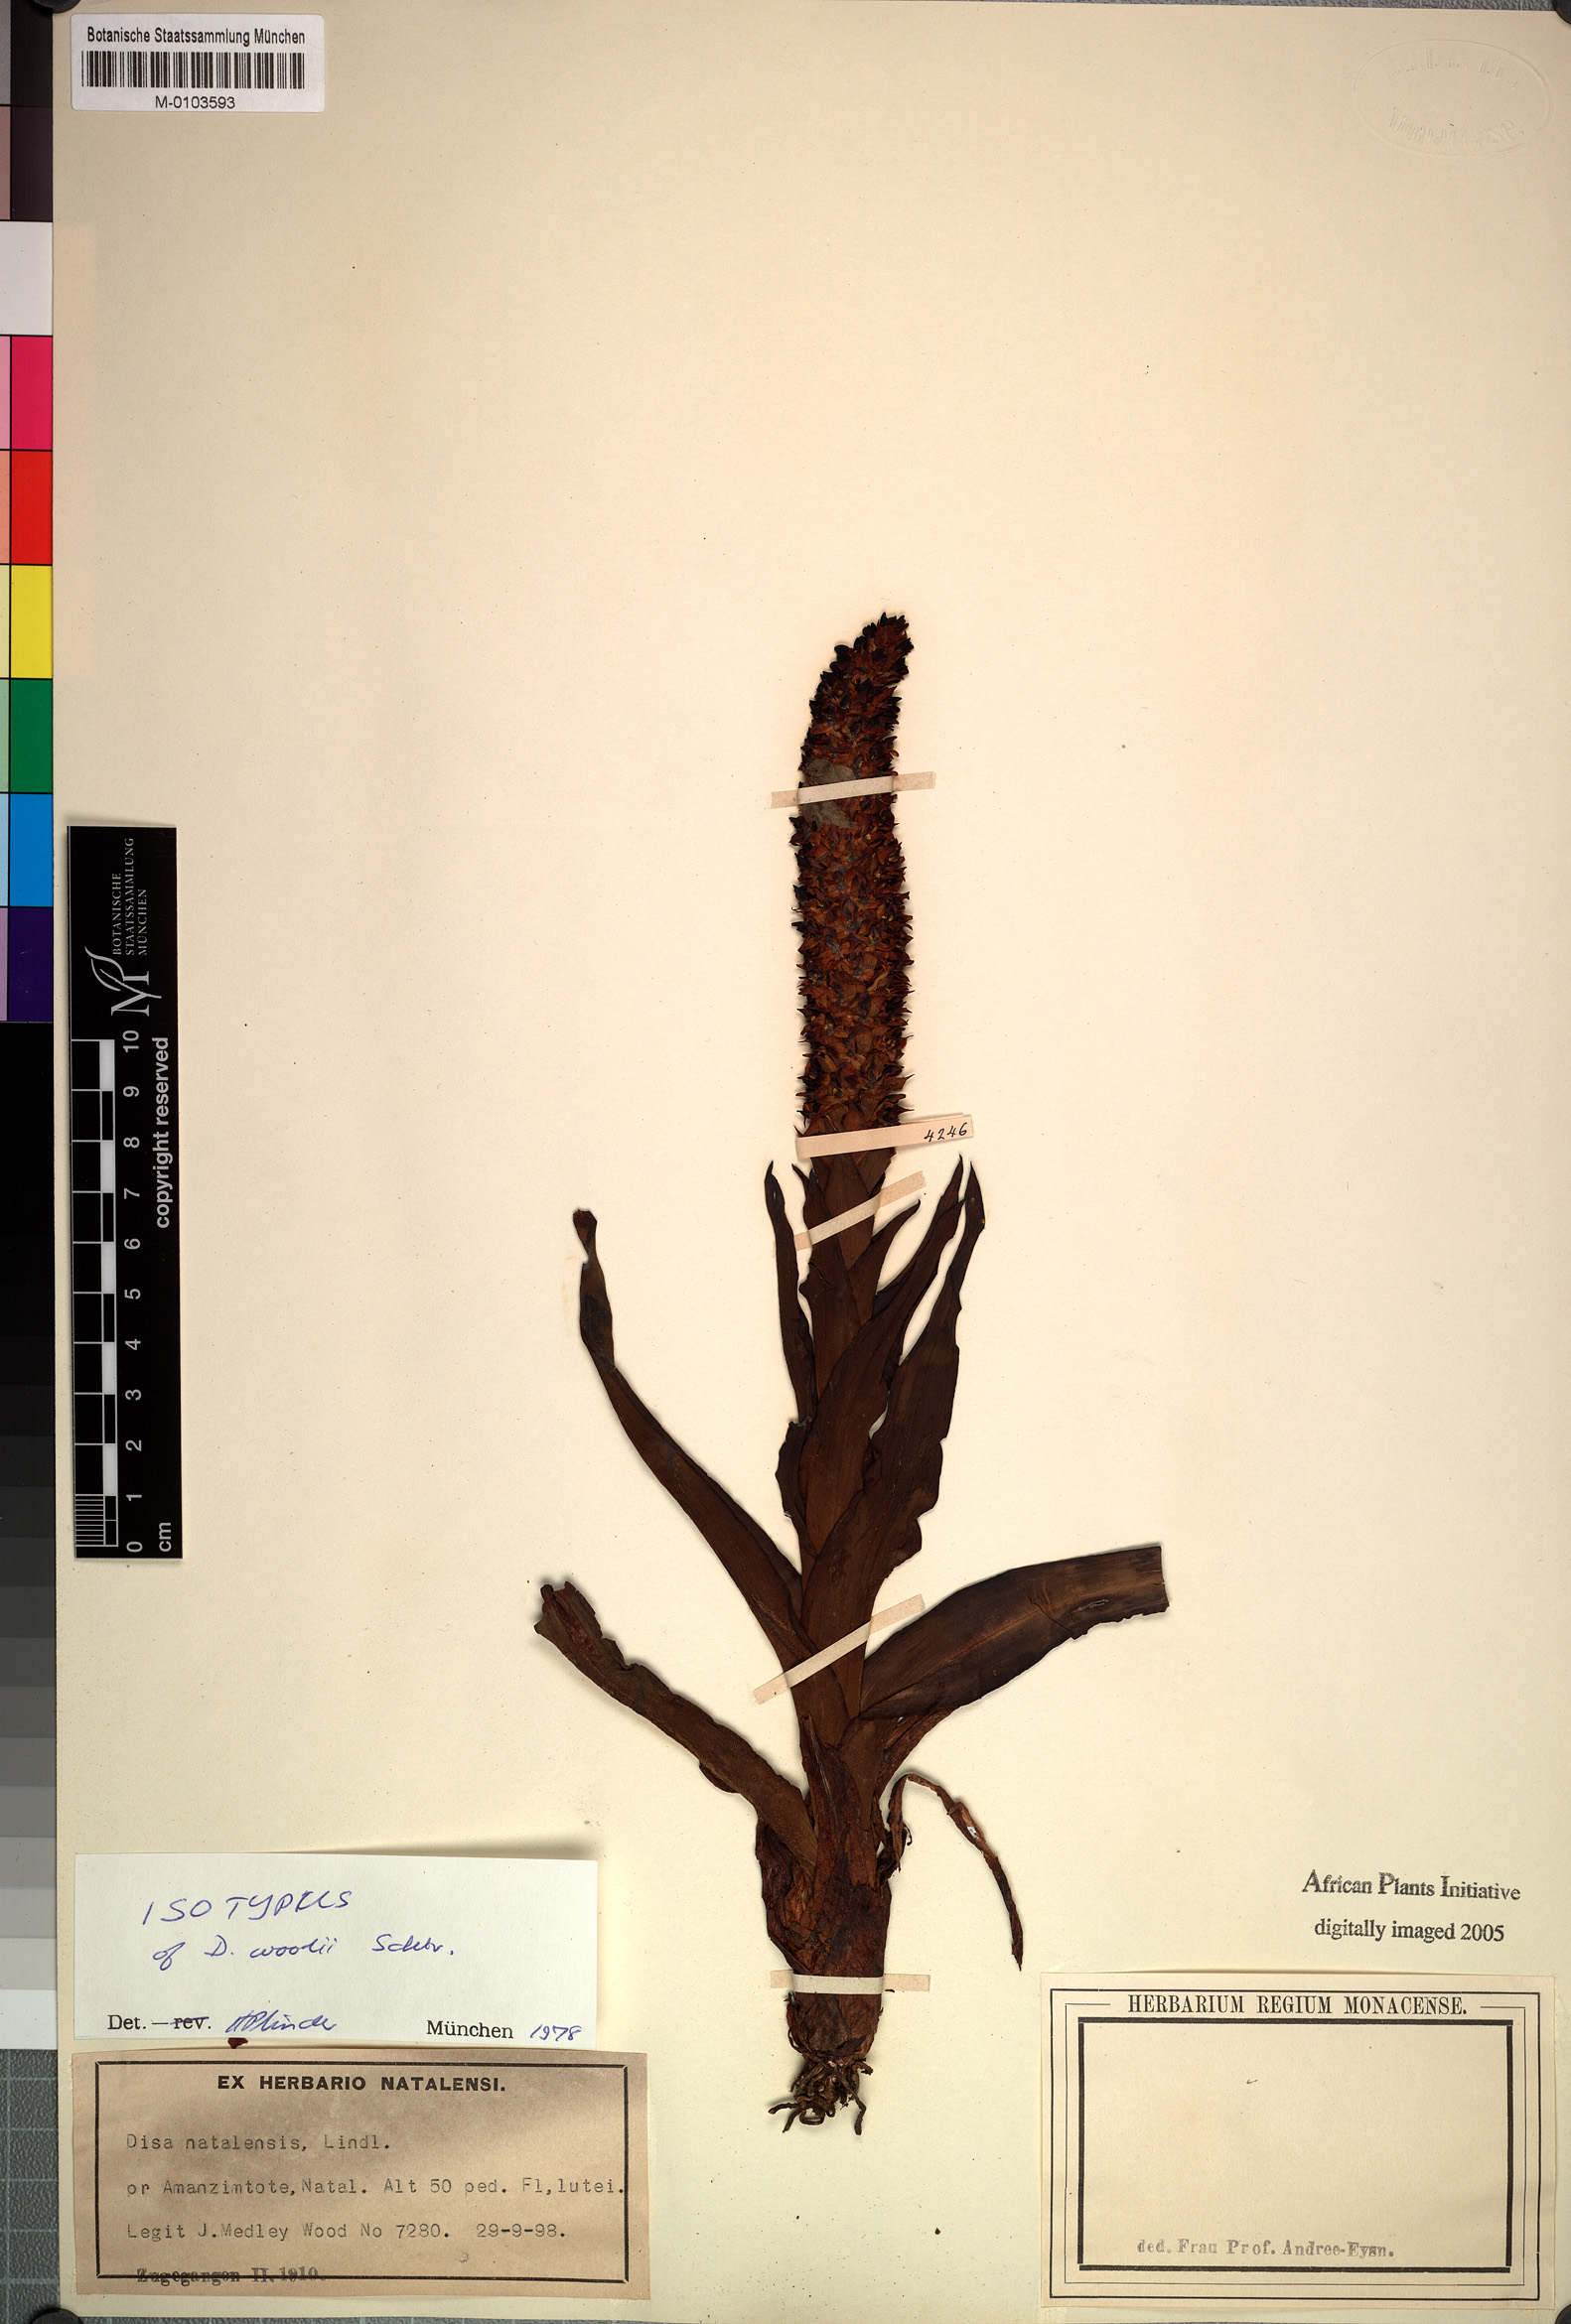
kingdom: Plantae
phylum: Tracheophyta
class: Liliopsida
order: Asparagales
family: Orchidaceae
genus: Disa
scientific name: Disa woodii
